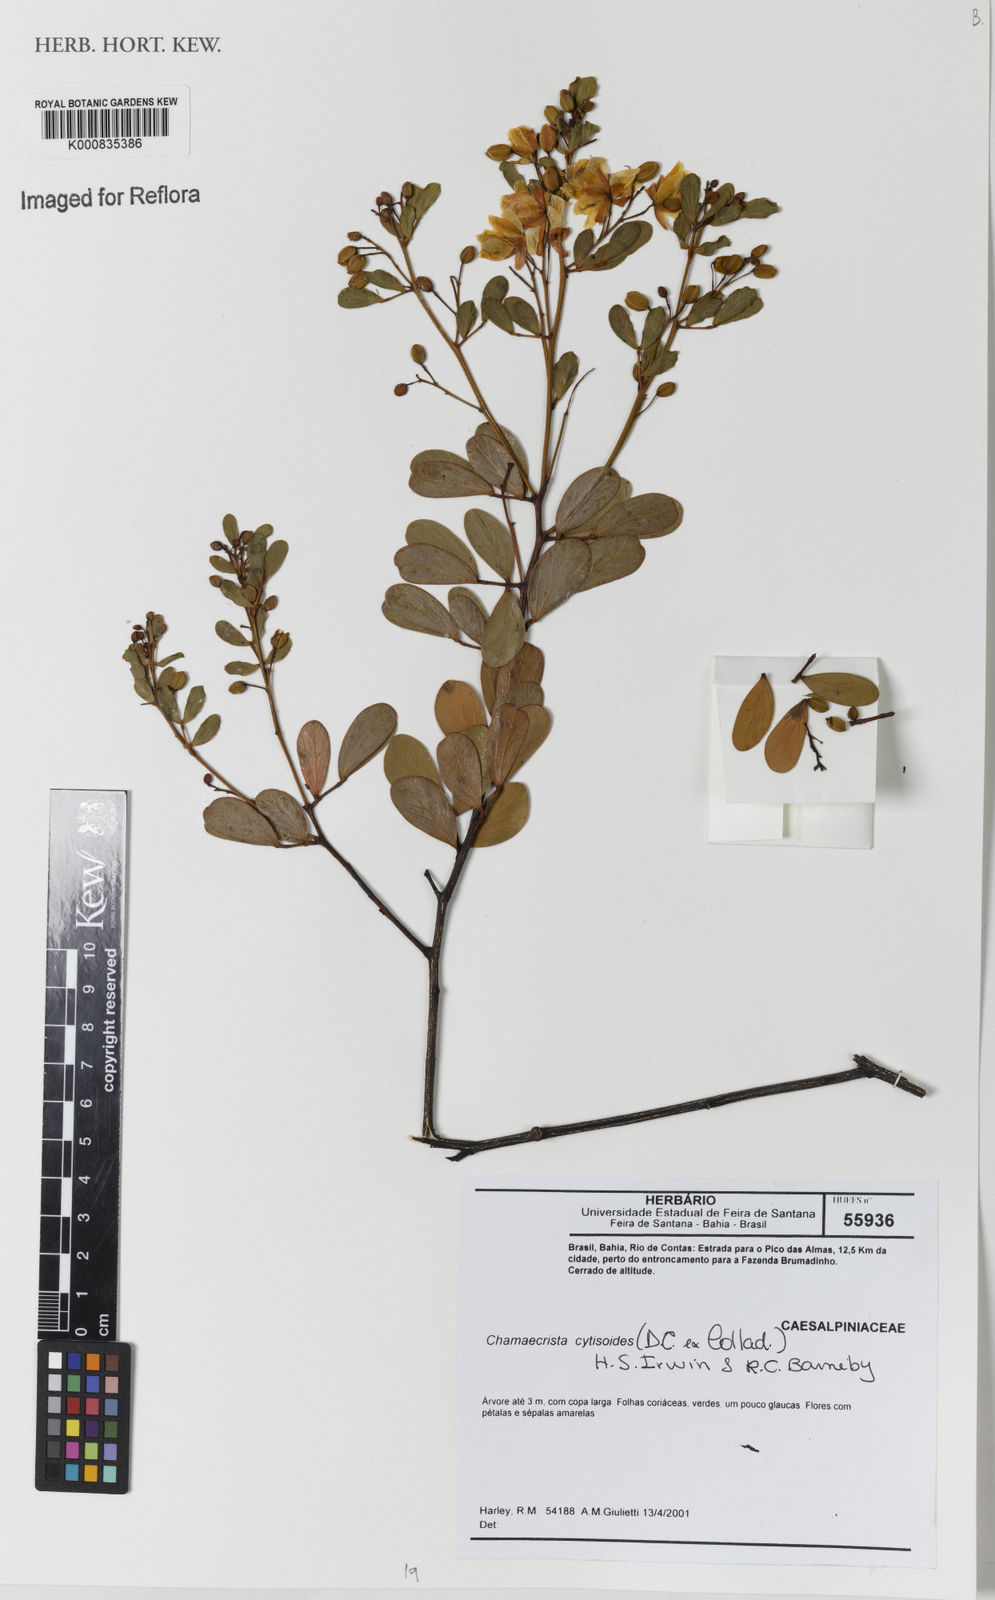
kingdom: Plantae
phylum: Tracheophyta
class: Magnoliopsida
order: Fabales
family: Fabaceae
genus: Chamaecrista
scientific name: Chamaecrista brachystachya
